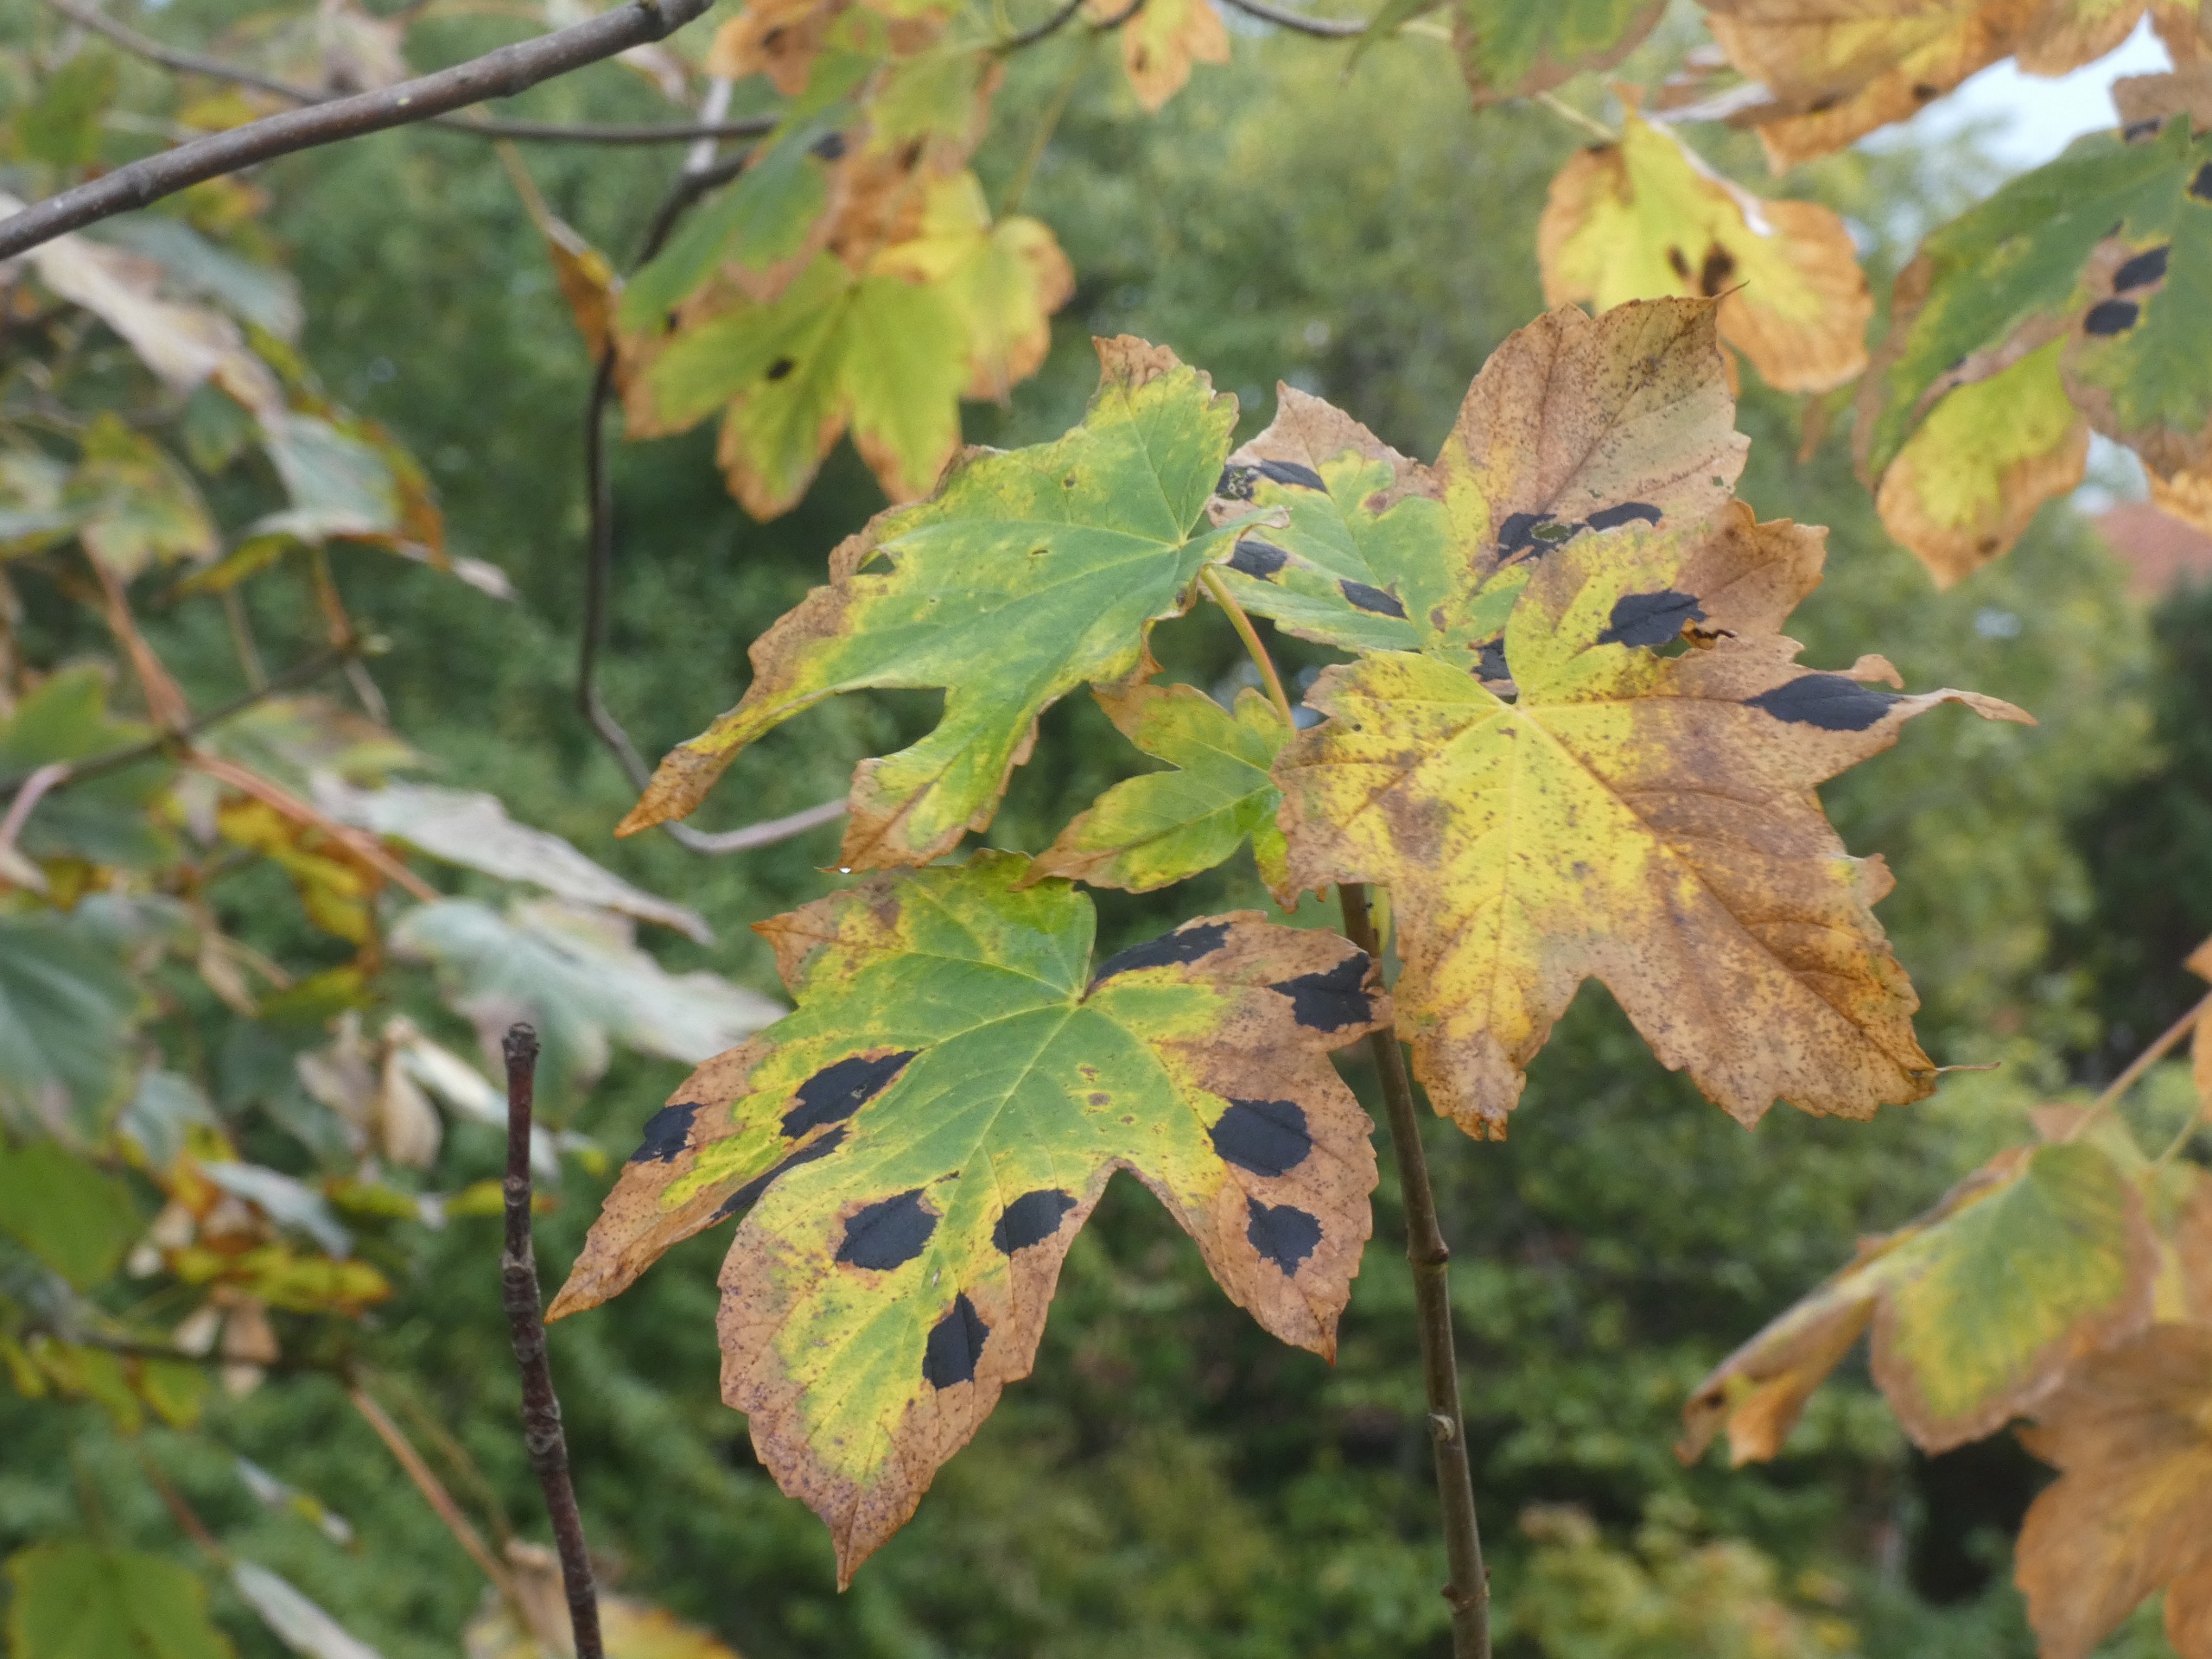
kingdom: Plantae
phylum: Tracheophyta
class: Magnoliopsida
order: Sapindales
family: Sapindaceae
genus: Acer
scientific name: Acer pseudoplatanus
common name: Ahorn
